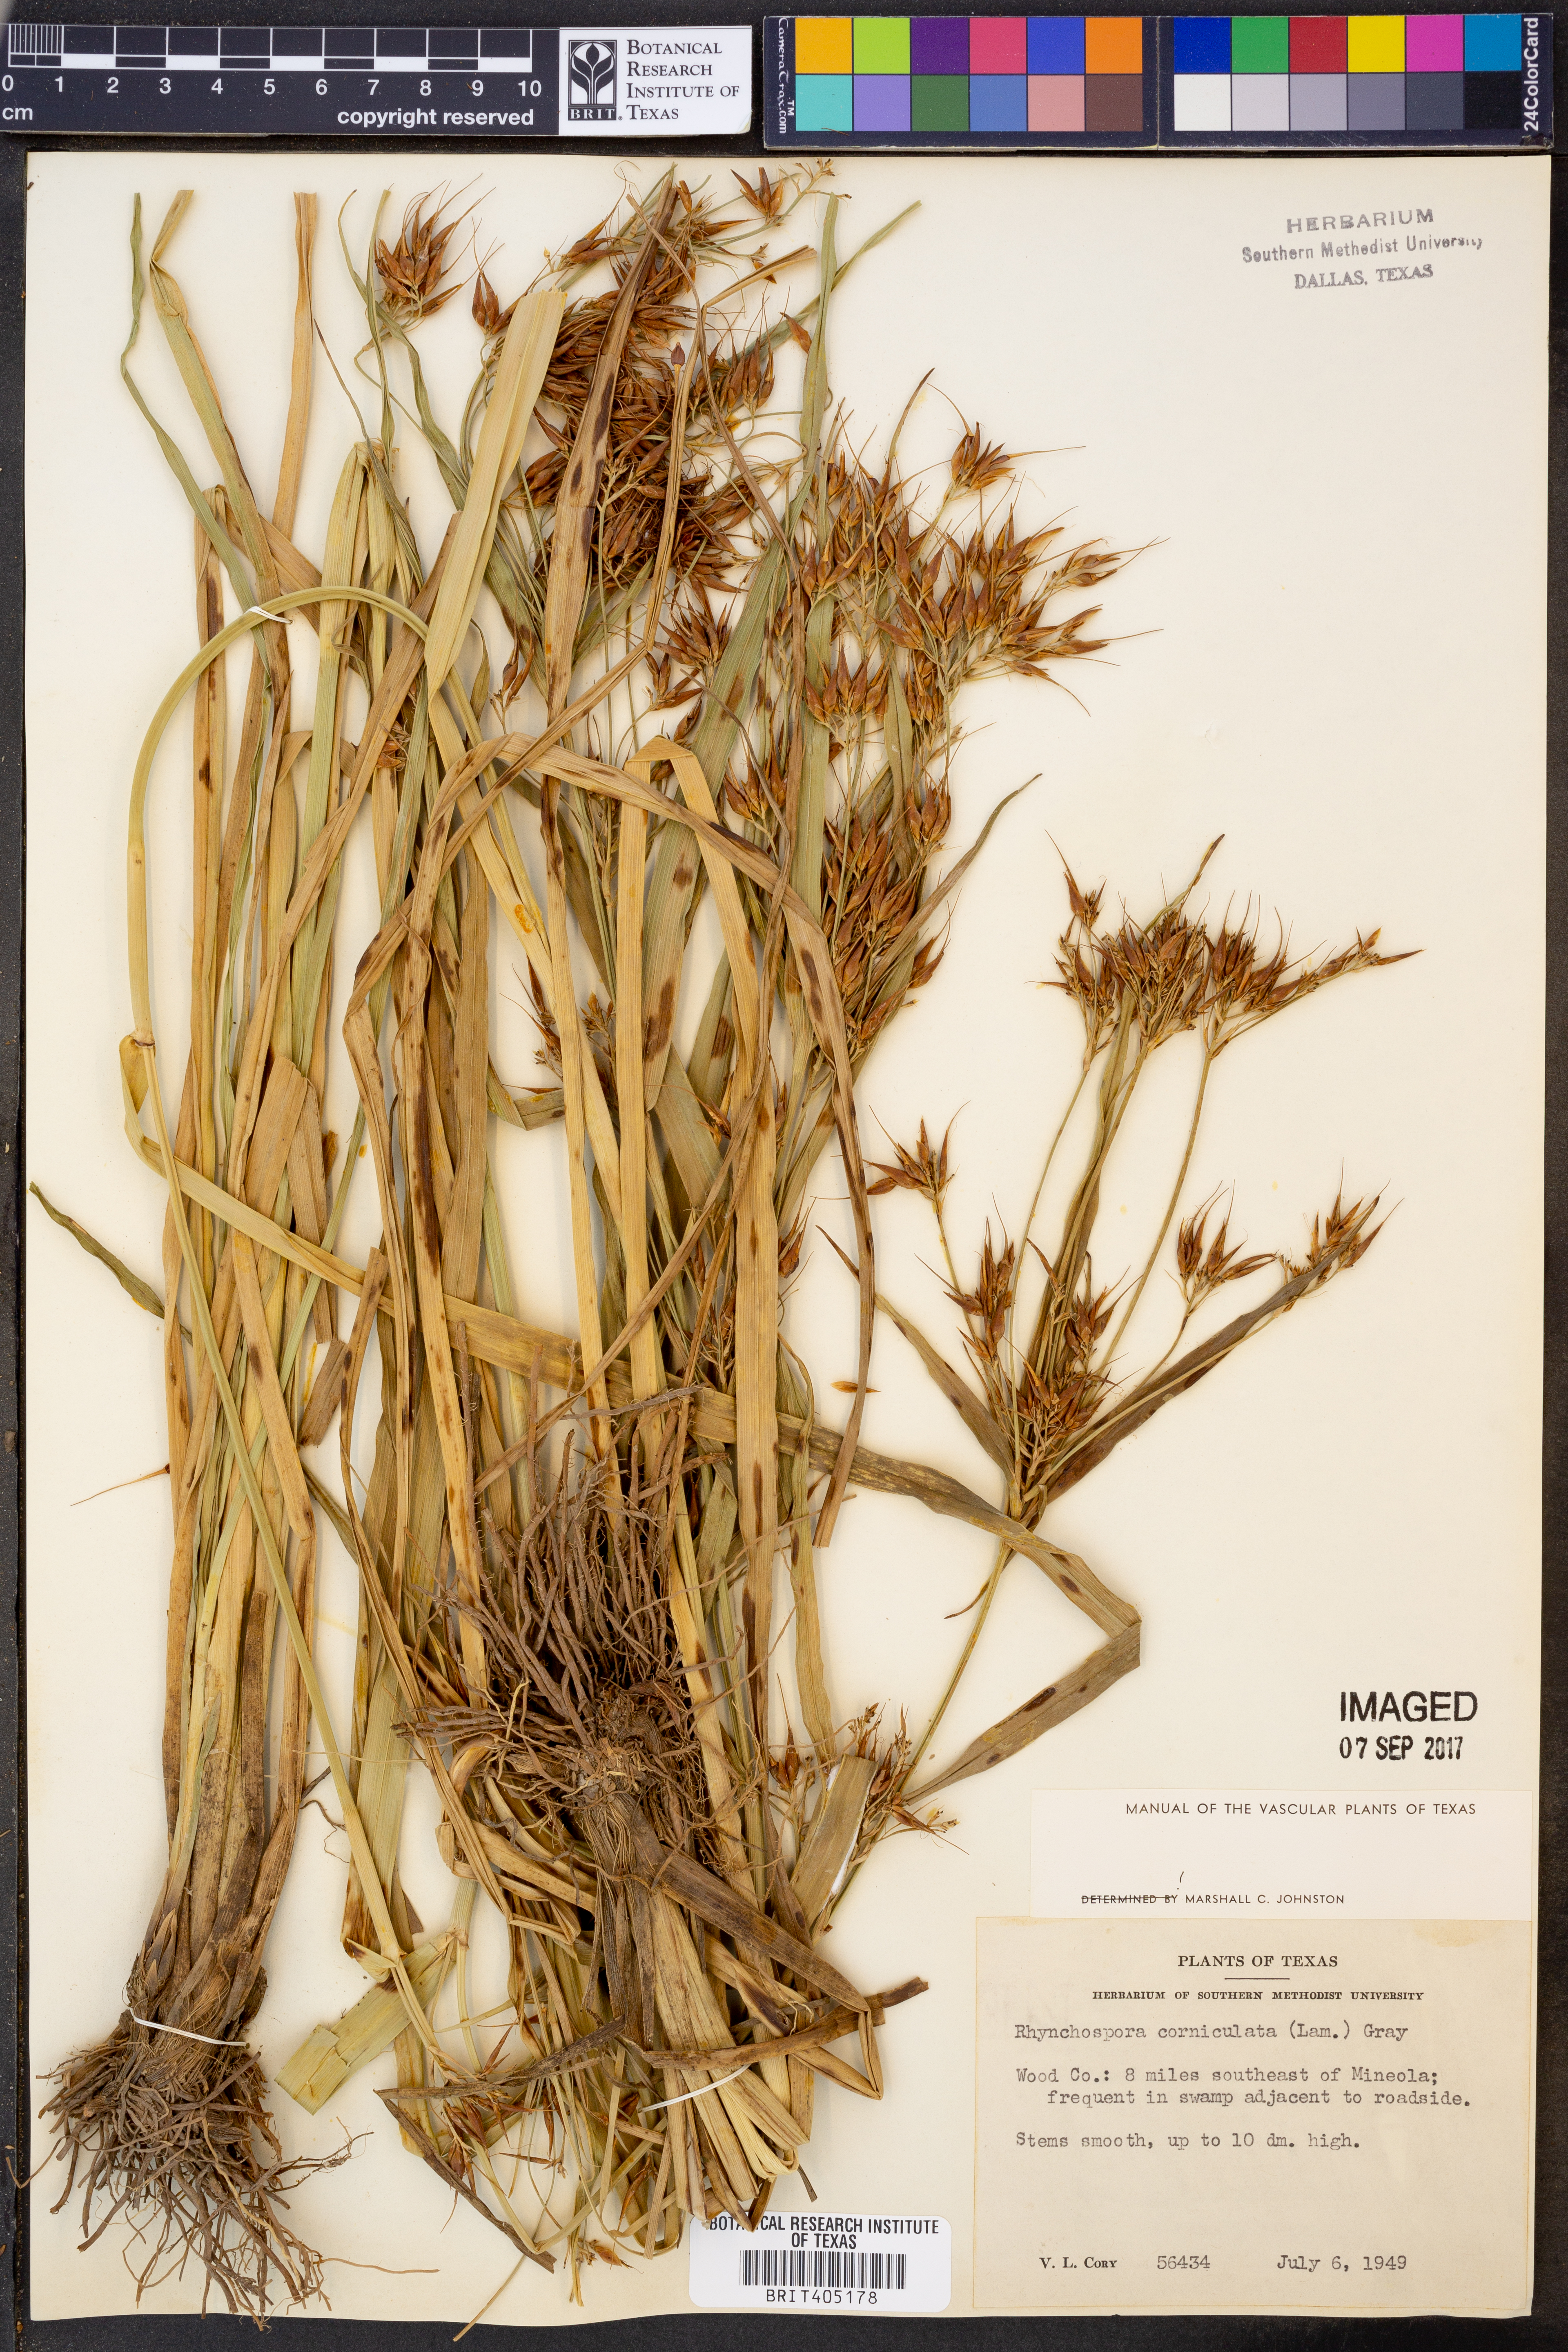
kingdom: Plantae
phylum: Tracheophyta
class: Liliopsida
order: Poales
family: Cyperaceae
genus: Rhynchospora
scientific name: Rhynchospora corniculata
